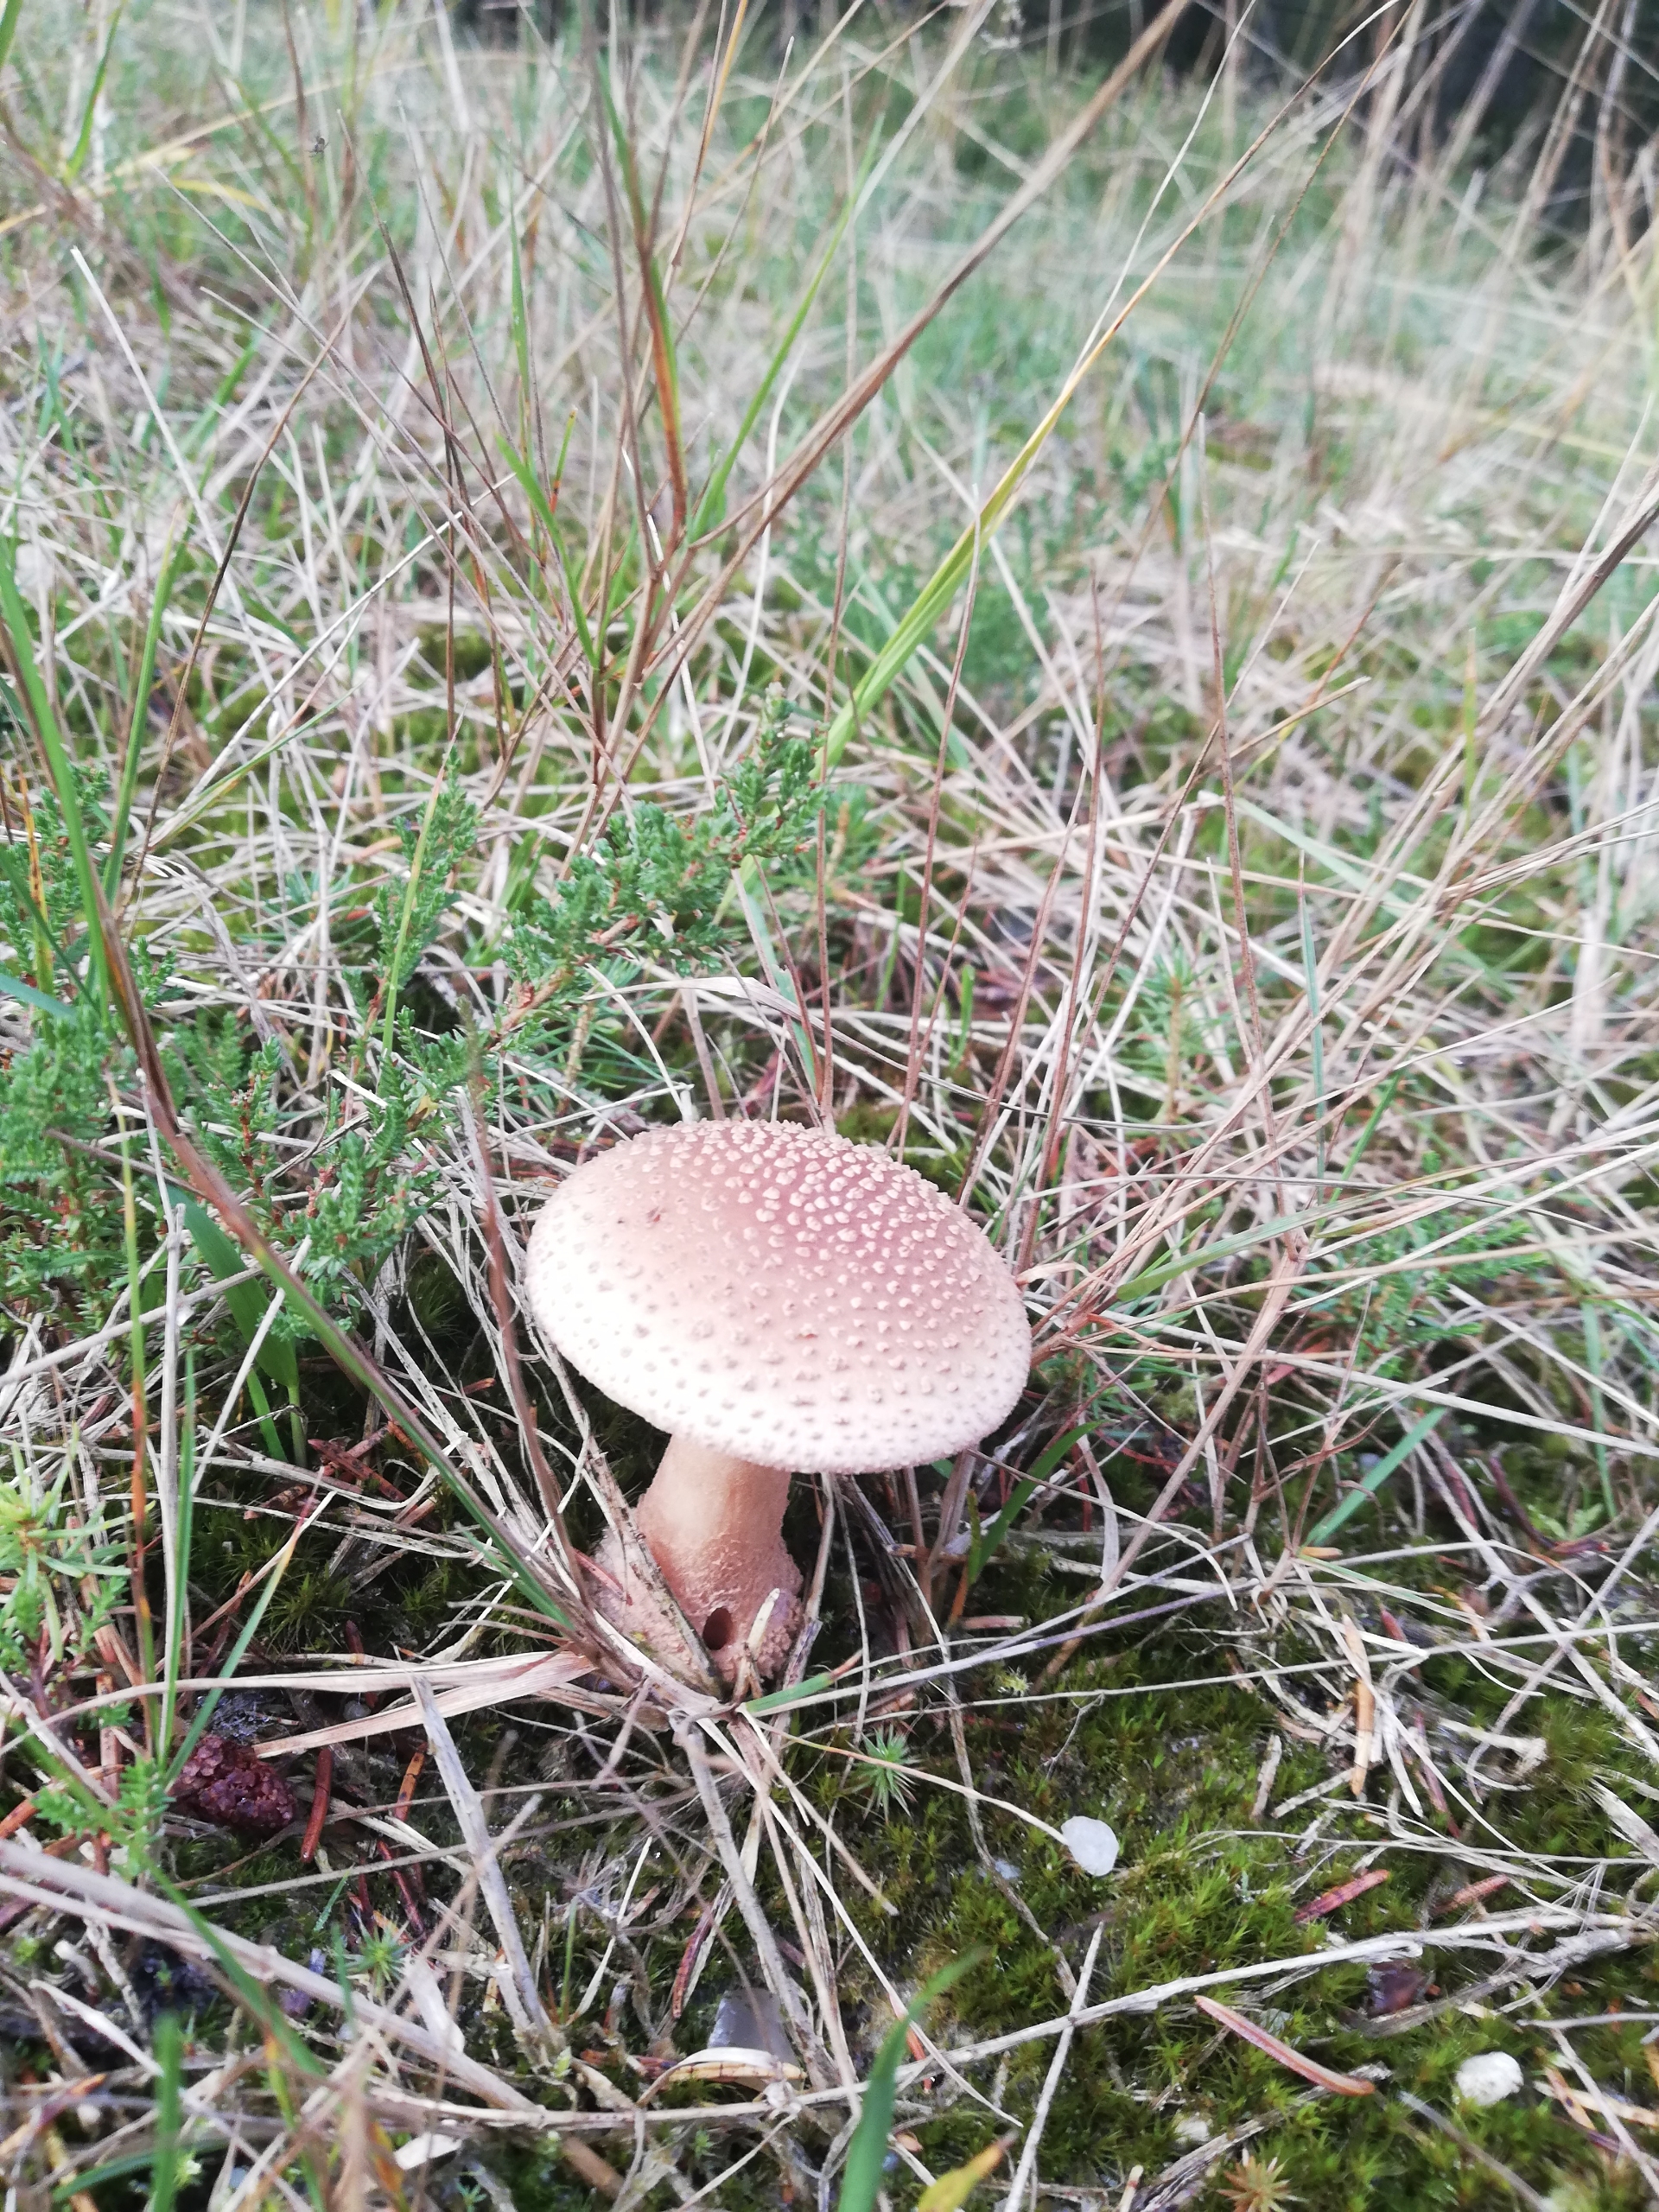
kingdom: Fungi
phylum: Basidiomycota
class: Agaricomycetes
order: Agaricales
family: Amanitaceae
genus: Amanita
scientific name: Amanita rubescens
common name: Rødmende fluesvamp
